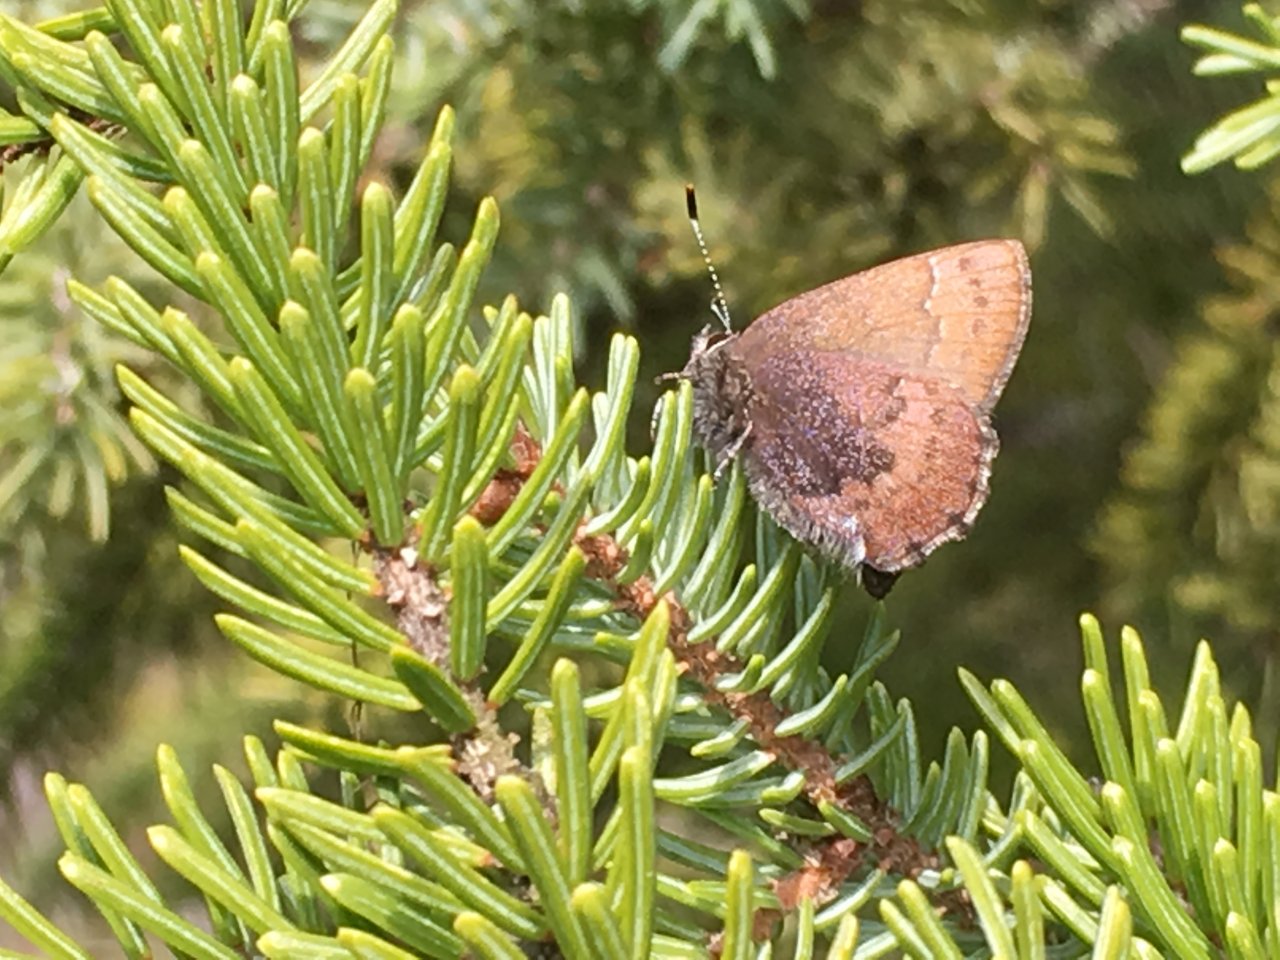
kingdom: Animalia
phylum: Arthropoda
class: Insecta
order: Lepidoptera
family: Lycaenidae
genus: Incisalia
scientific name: Incisalia irioides
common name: Brown Elfin
